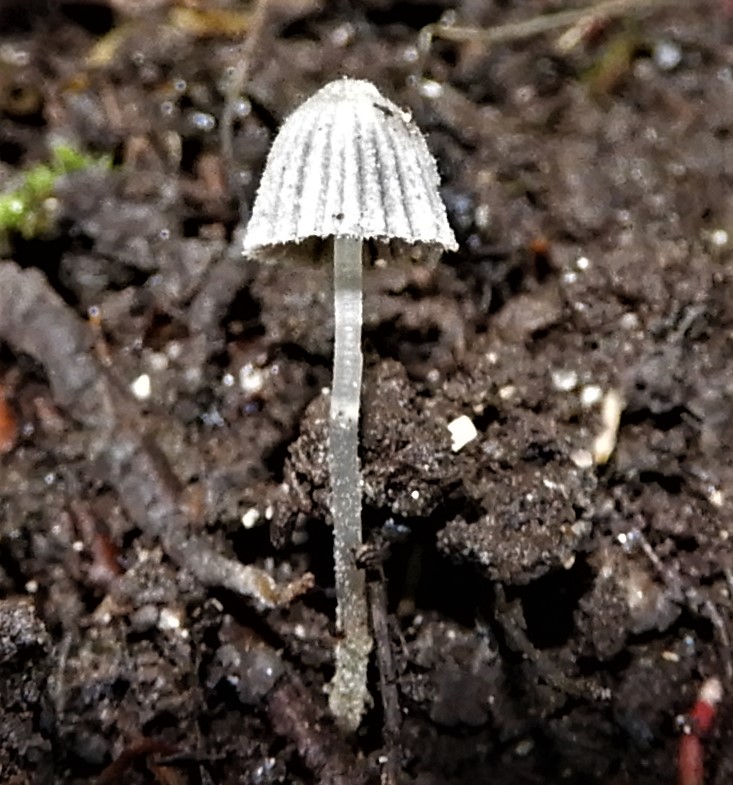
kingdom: Fungi
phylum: Basidiomycota
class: Agaricomycetes
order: Agaricales
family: Psathyrellaceae
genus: Coprinellus
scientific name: Coprinellus
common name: blækhat
